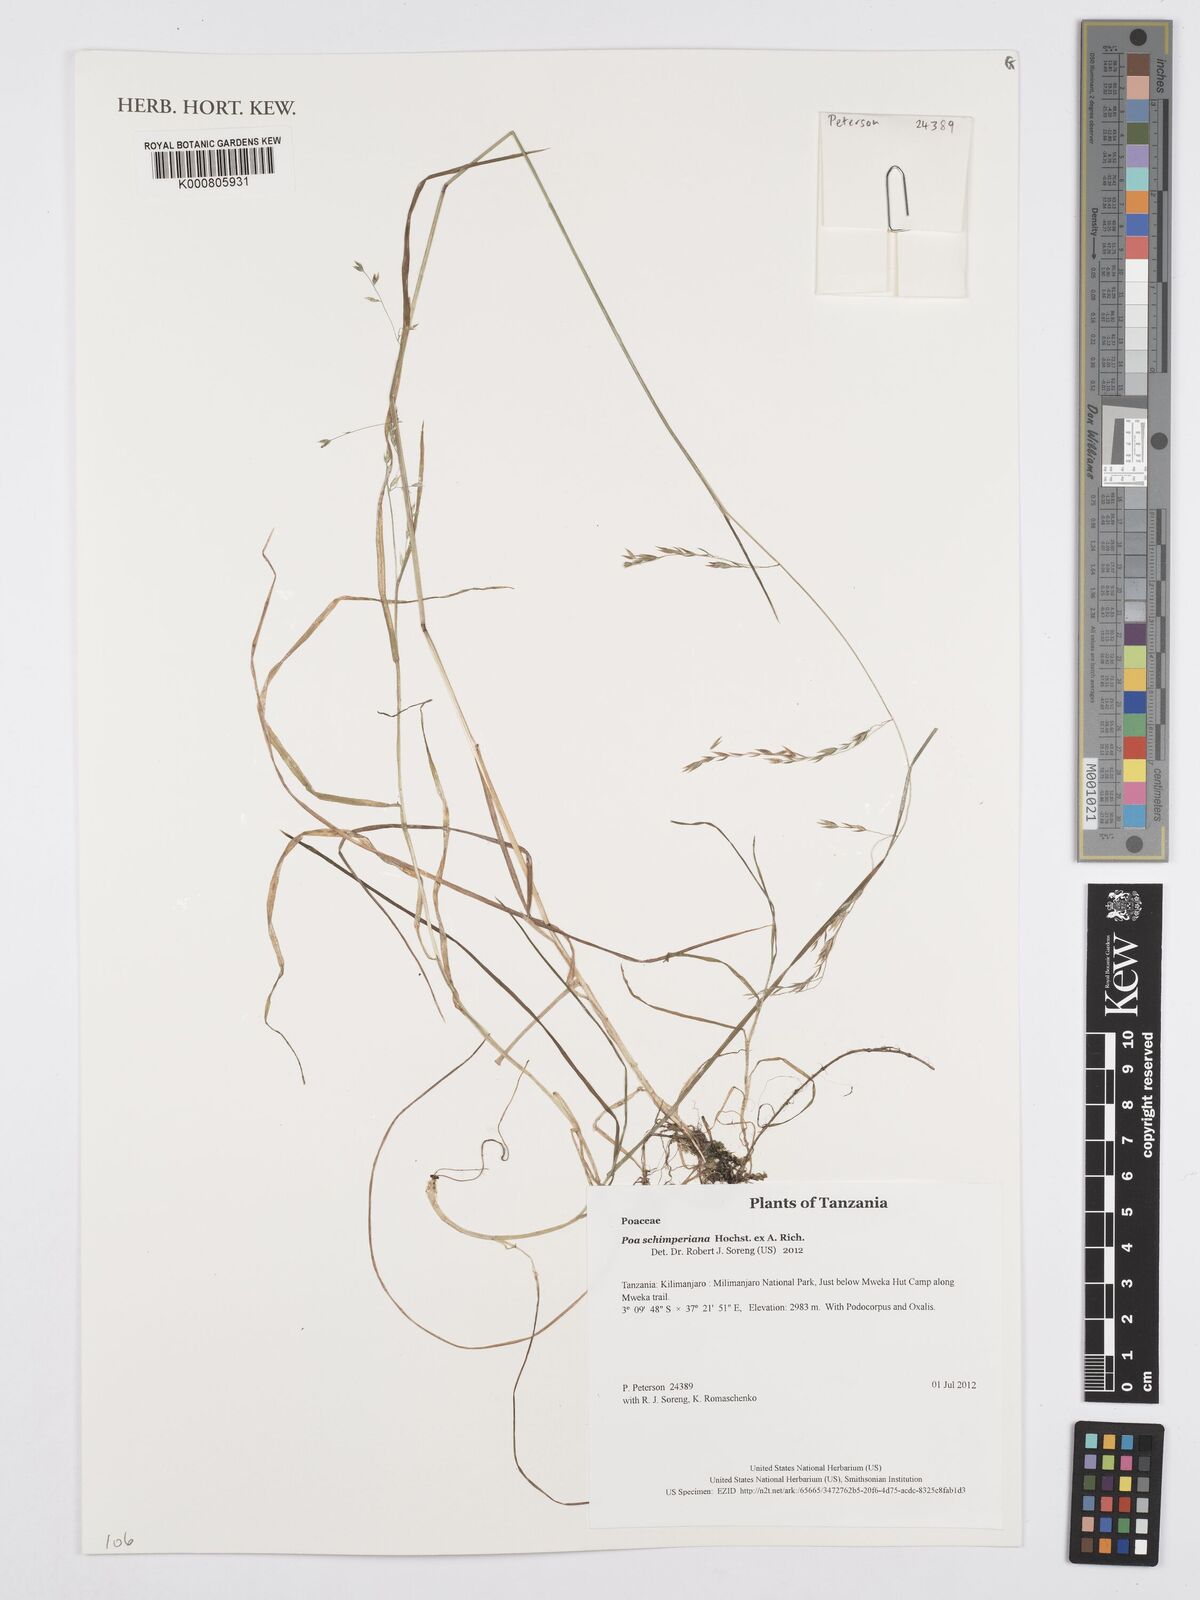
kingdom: Plantae
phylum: Tracheophyta
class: Liliopsida
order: Poales
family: Poaceae
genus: Poa
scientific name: Poa schimperiana
